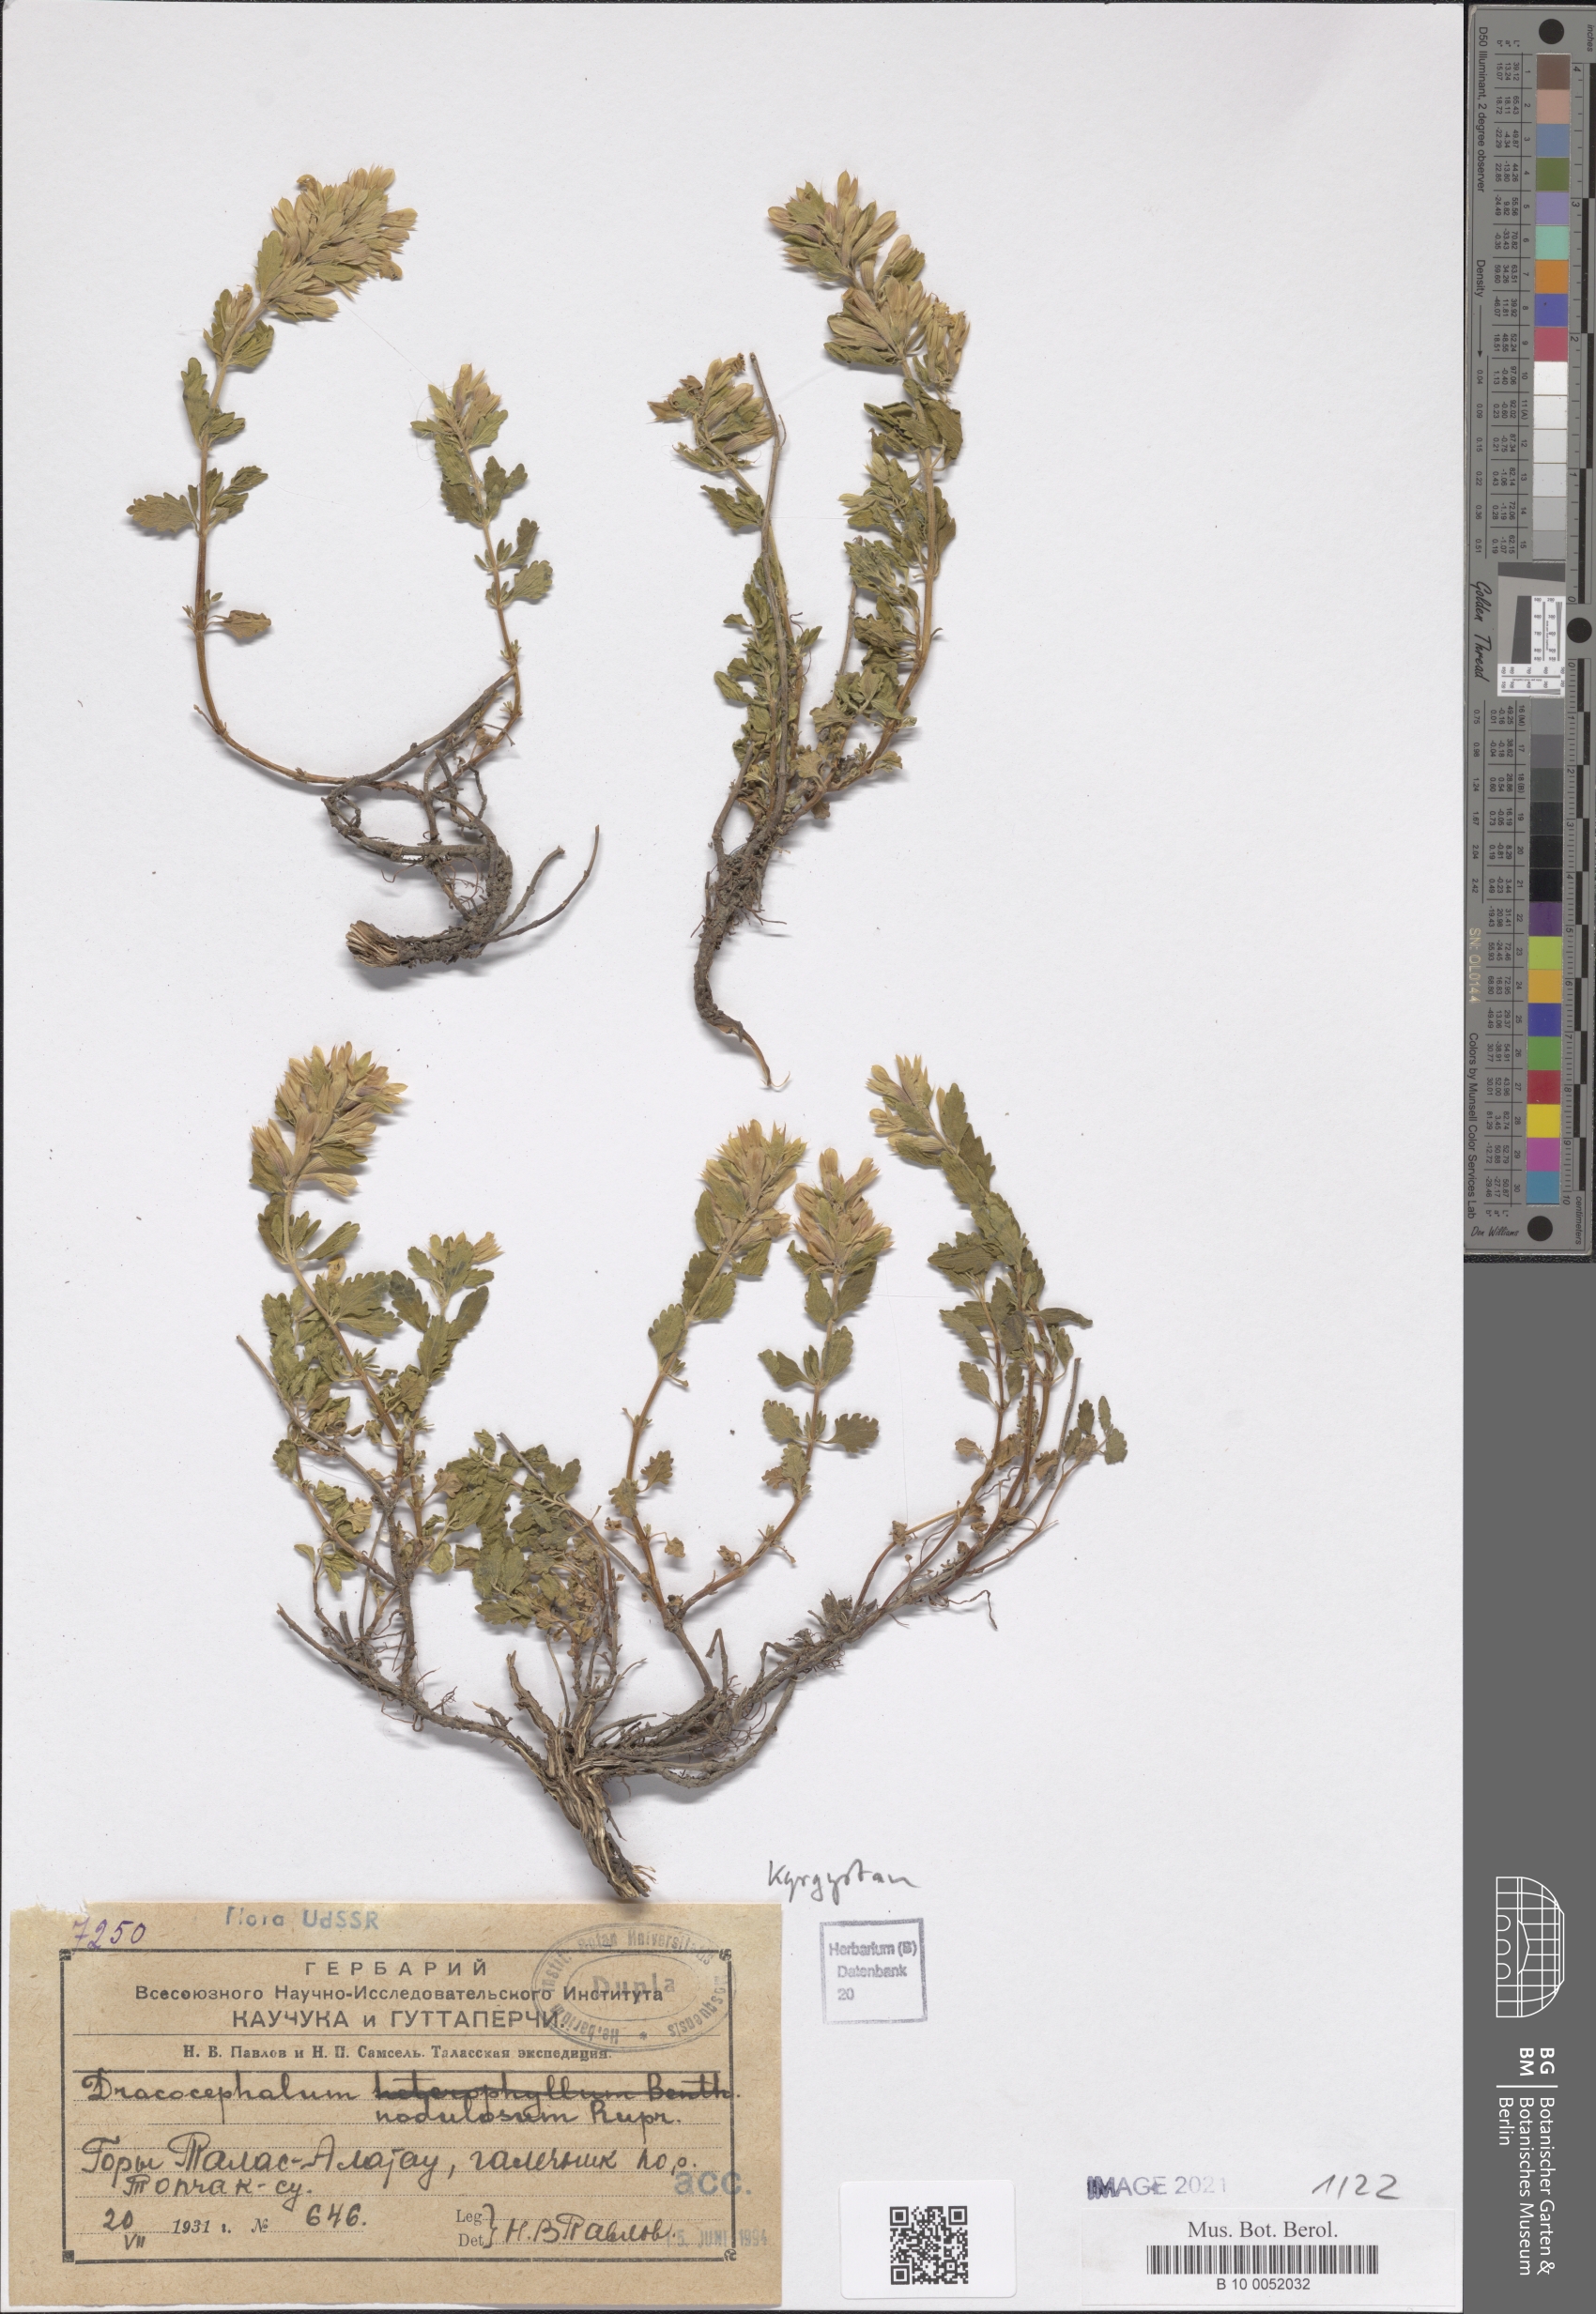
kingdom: Plantae
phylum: Tracheophyta
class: Magnoliopsida
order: Lamiales
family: Lamiaceae
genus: Dracocephalum
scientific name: Dracocephalum nodulosum
